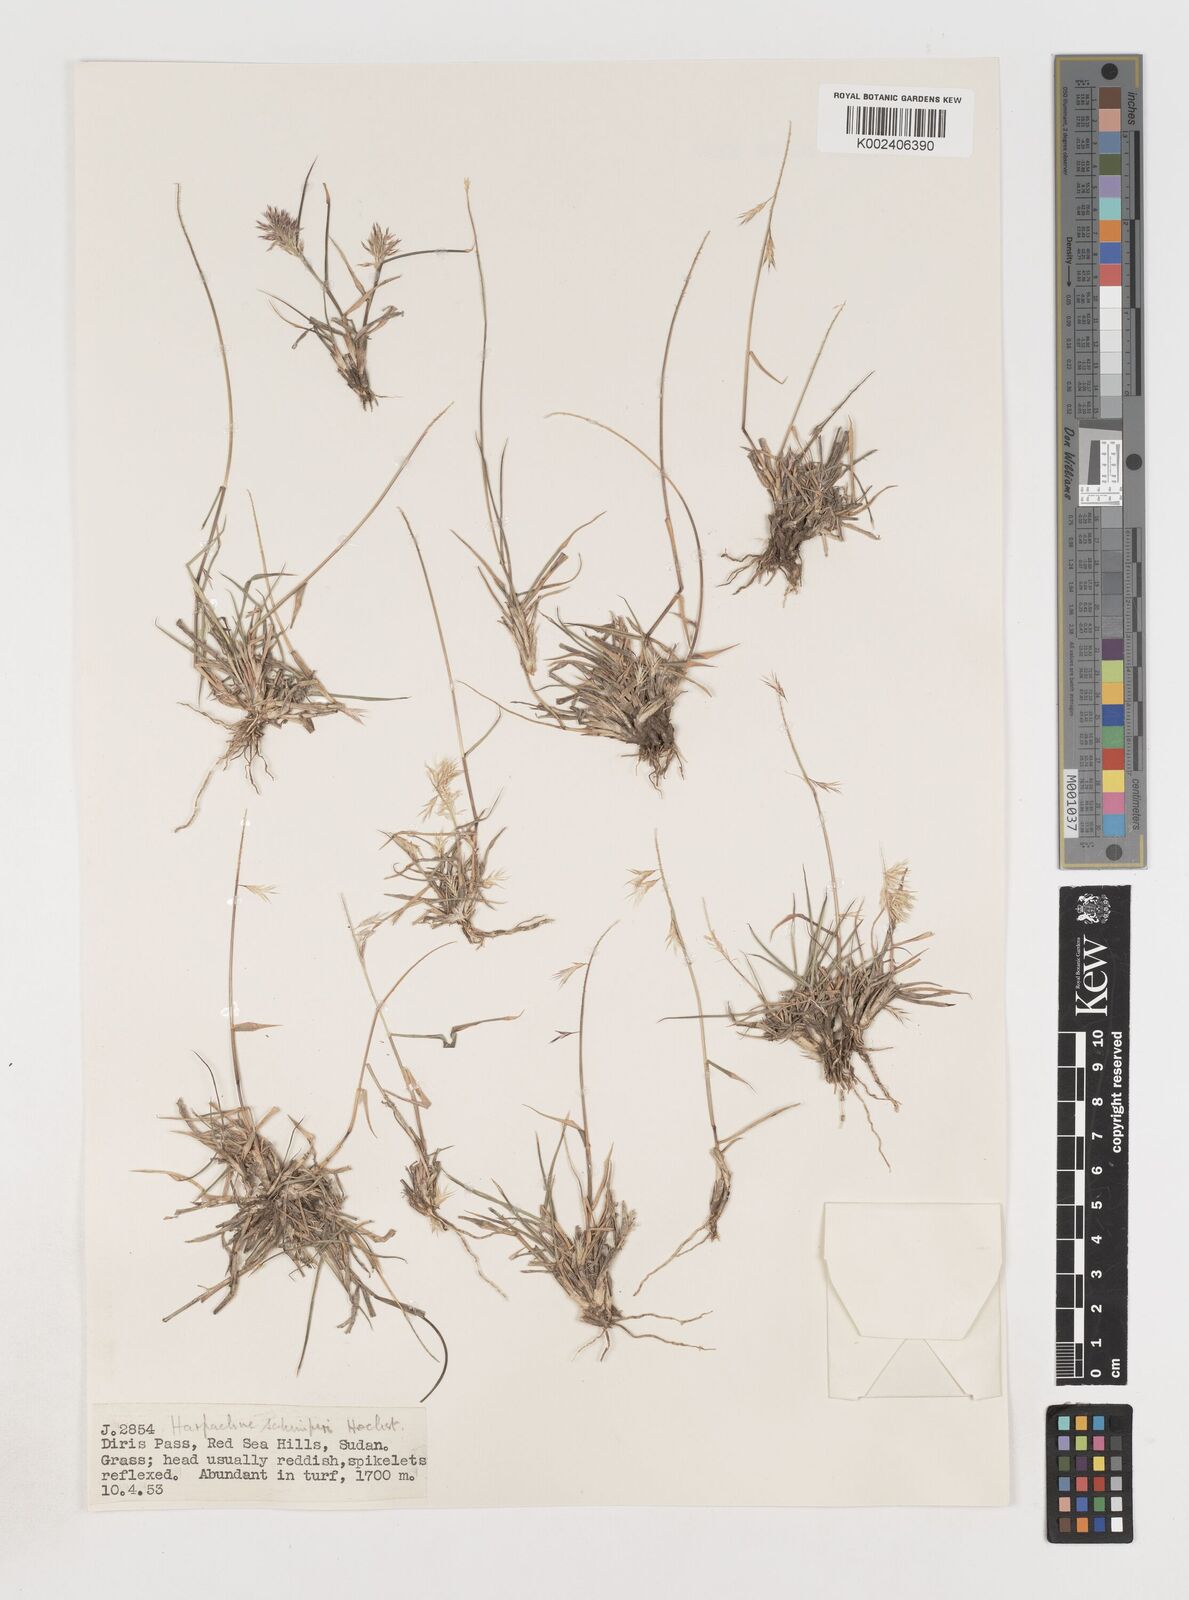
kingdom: Plantae
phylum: Tracheophyta
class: Liliopsida
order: Poales
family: Poaceae
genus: Harpachne
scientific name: Harpachne schimperi
